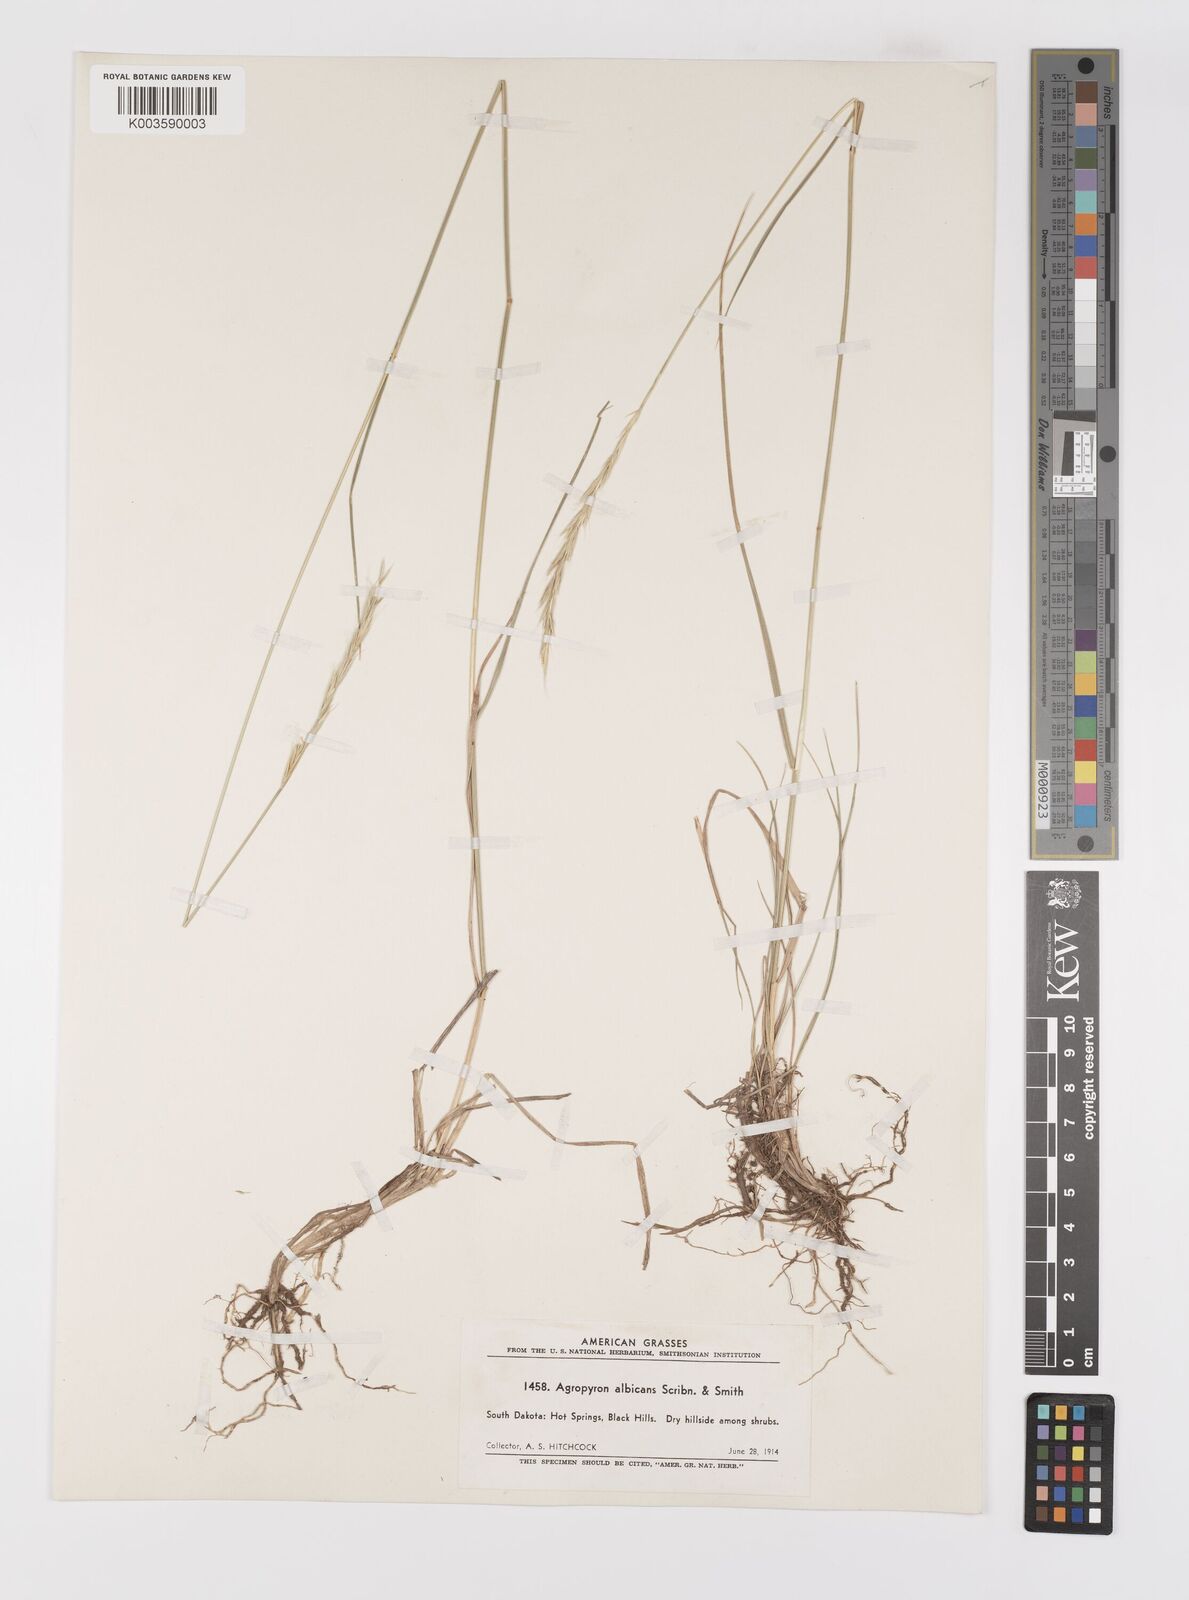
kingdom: Plantae
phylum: Tracheophyta
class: Liliopsida
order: Poales
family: Poaceae
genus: Elymus
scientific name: Elymus albicans
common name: Montana wheatgrass
